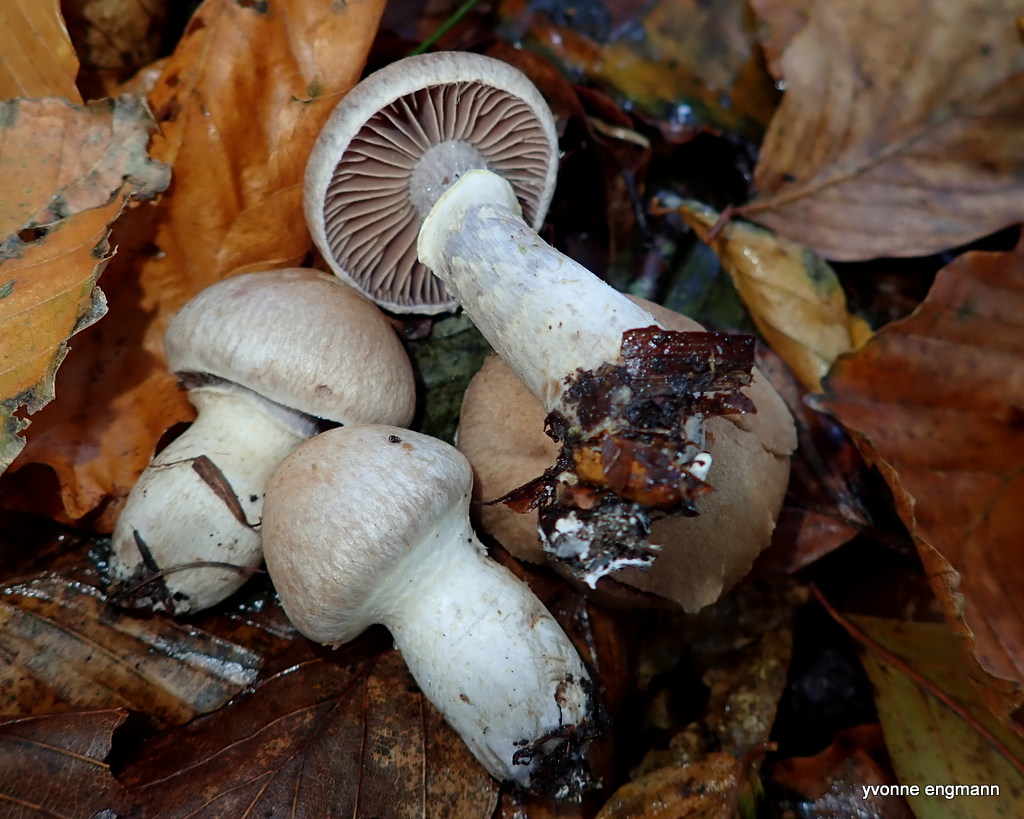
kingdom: Fungi
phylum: Basidiomycota
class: Agaricomycetes
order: Agaricales
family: Cortinariaceae
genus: Cortinarius
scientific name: Cortinarius torvus
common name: champignonagtig slørhat
